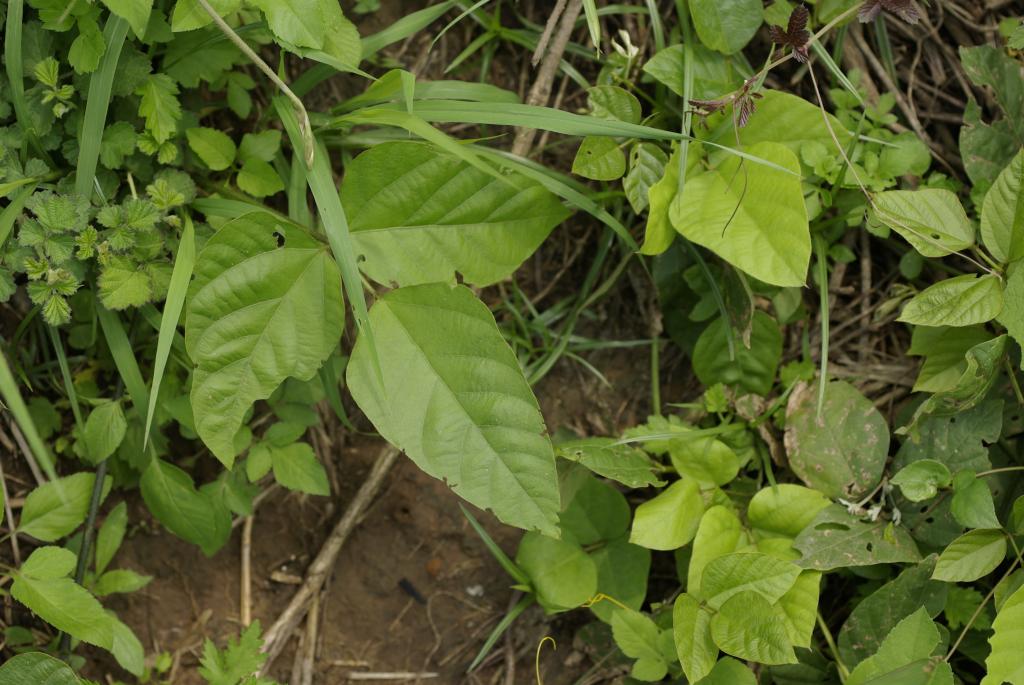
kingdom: Plantae
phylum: Tracheophyta
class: Magnoliopsida
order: Fabales
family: Fabaceae
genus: Pueraria
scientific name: Pueraria montana
